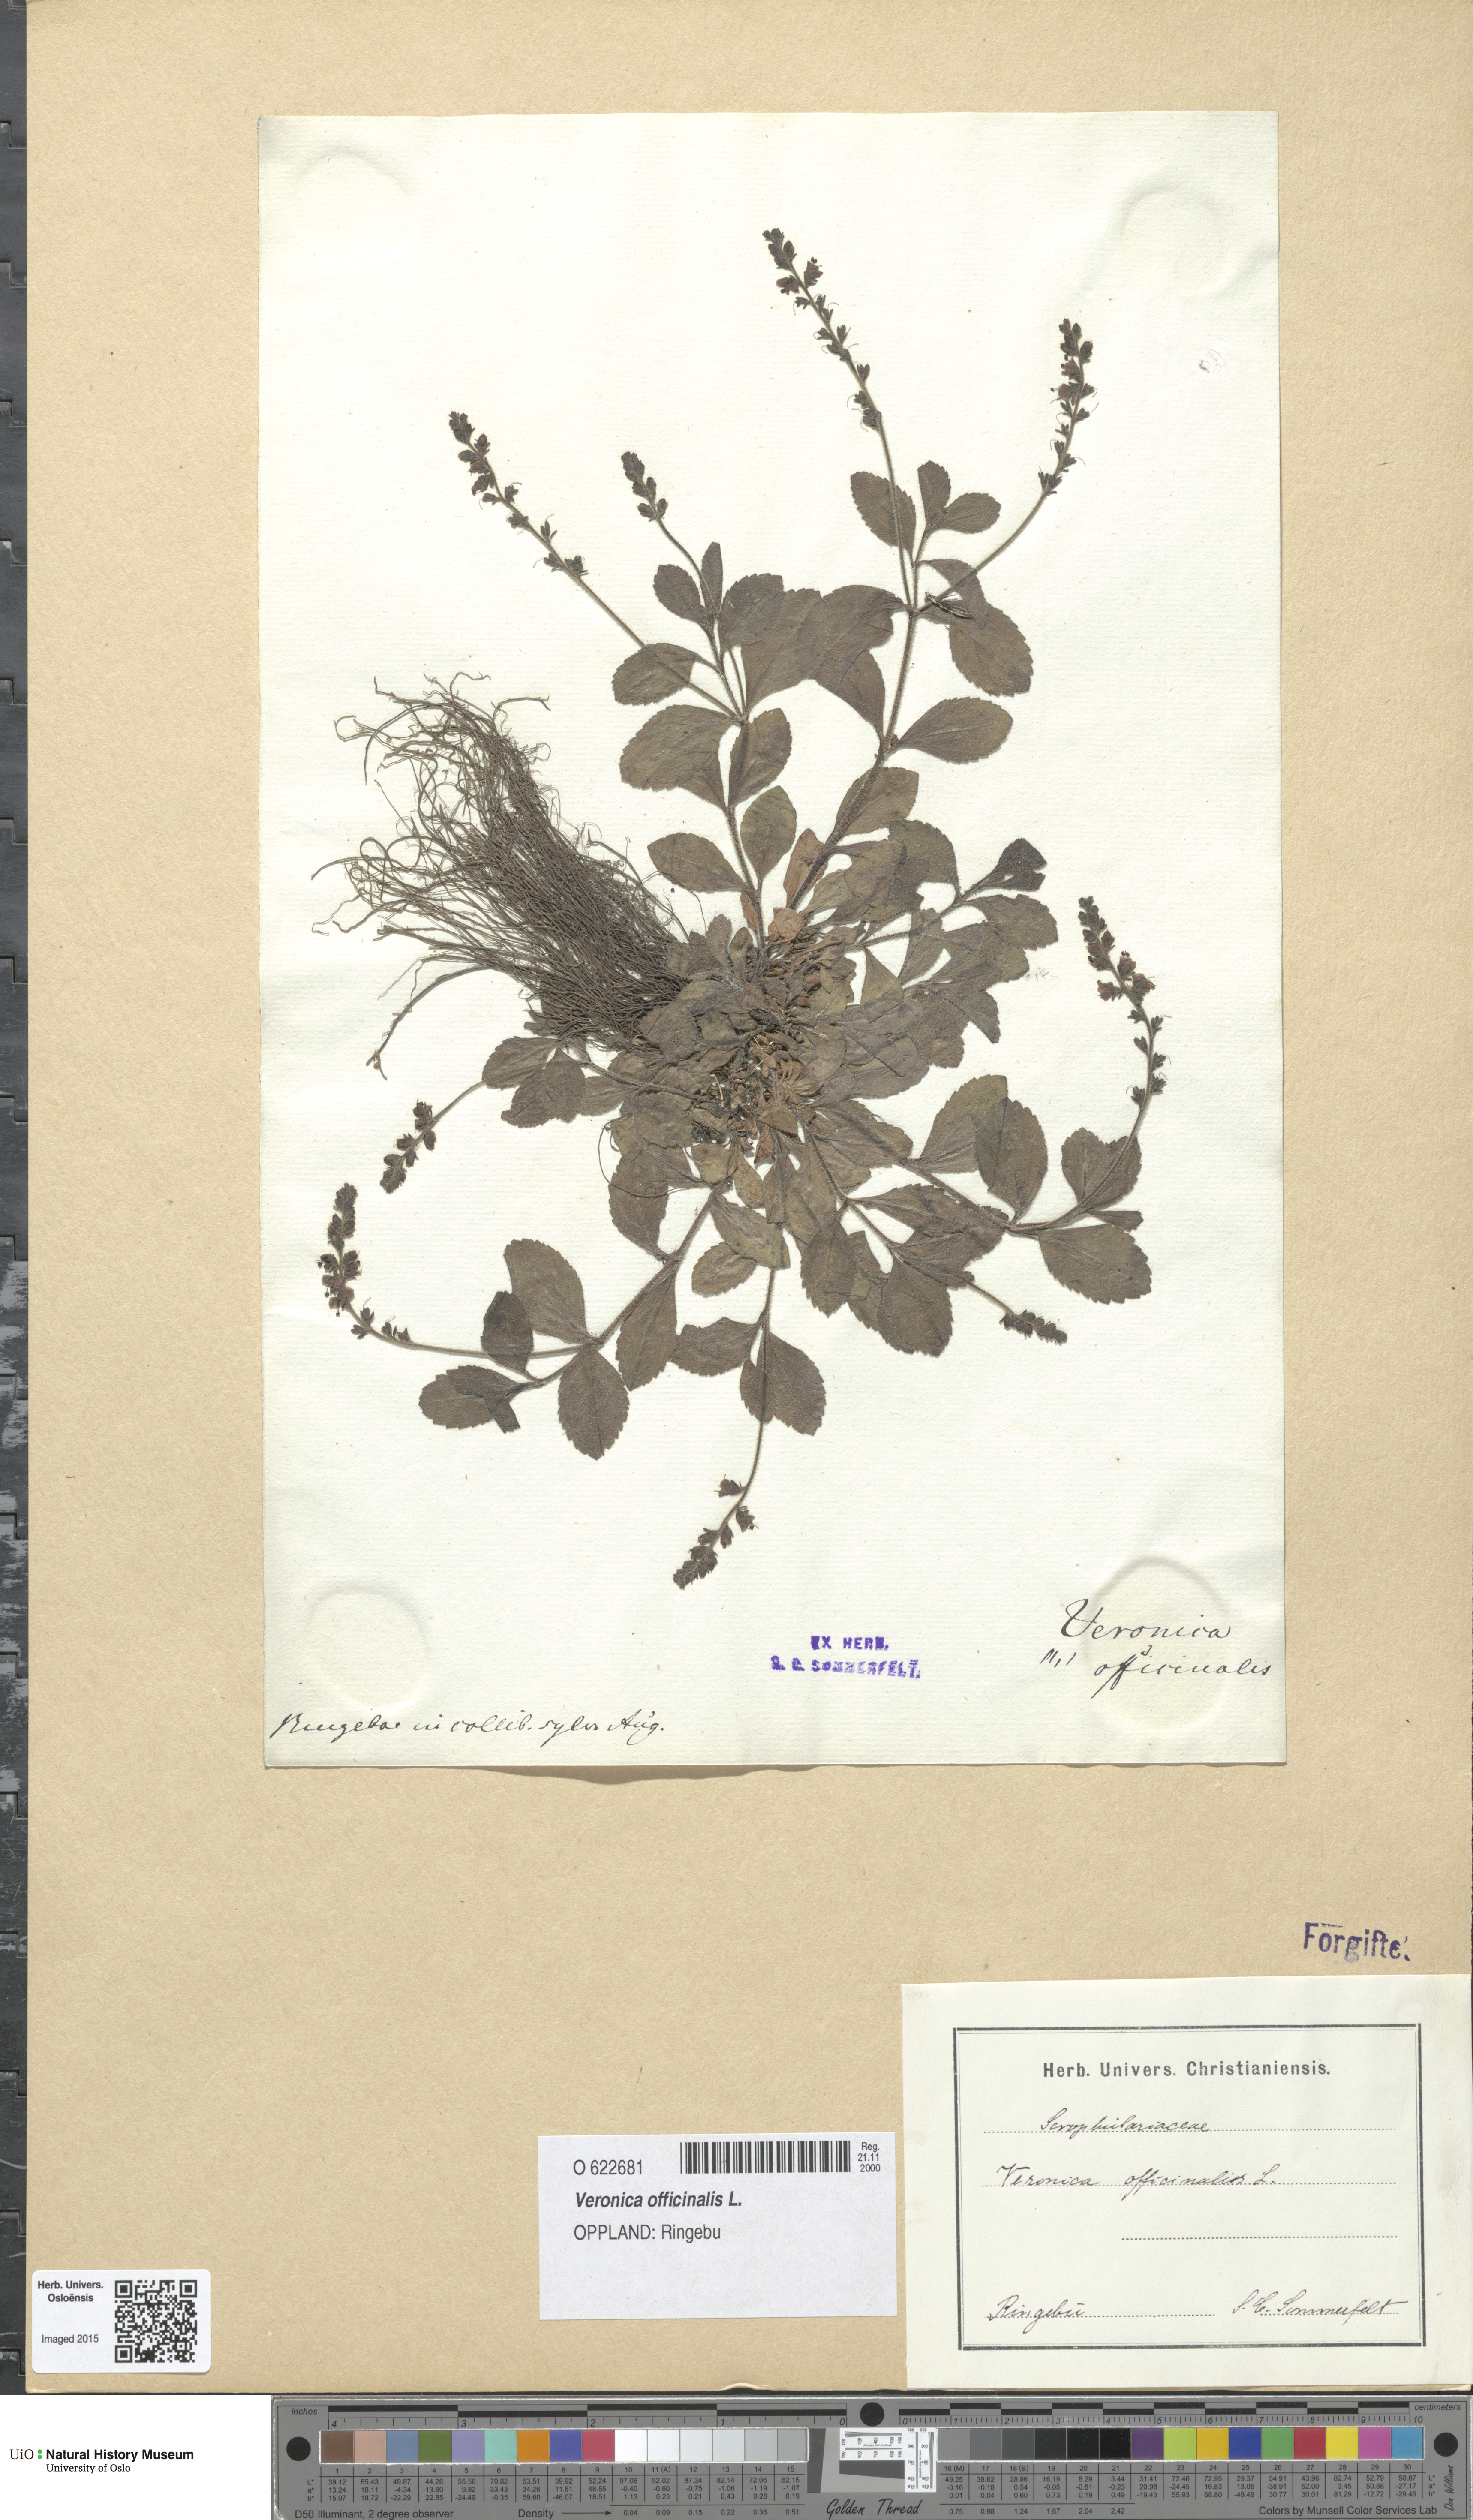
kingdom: Plantae
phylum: Tracheophyta
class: Magnoliopsida
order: Lamiales
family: Plantaginaceae
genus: Veronica
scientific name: Veronica officinalis
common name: Common speedwell
